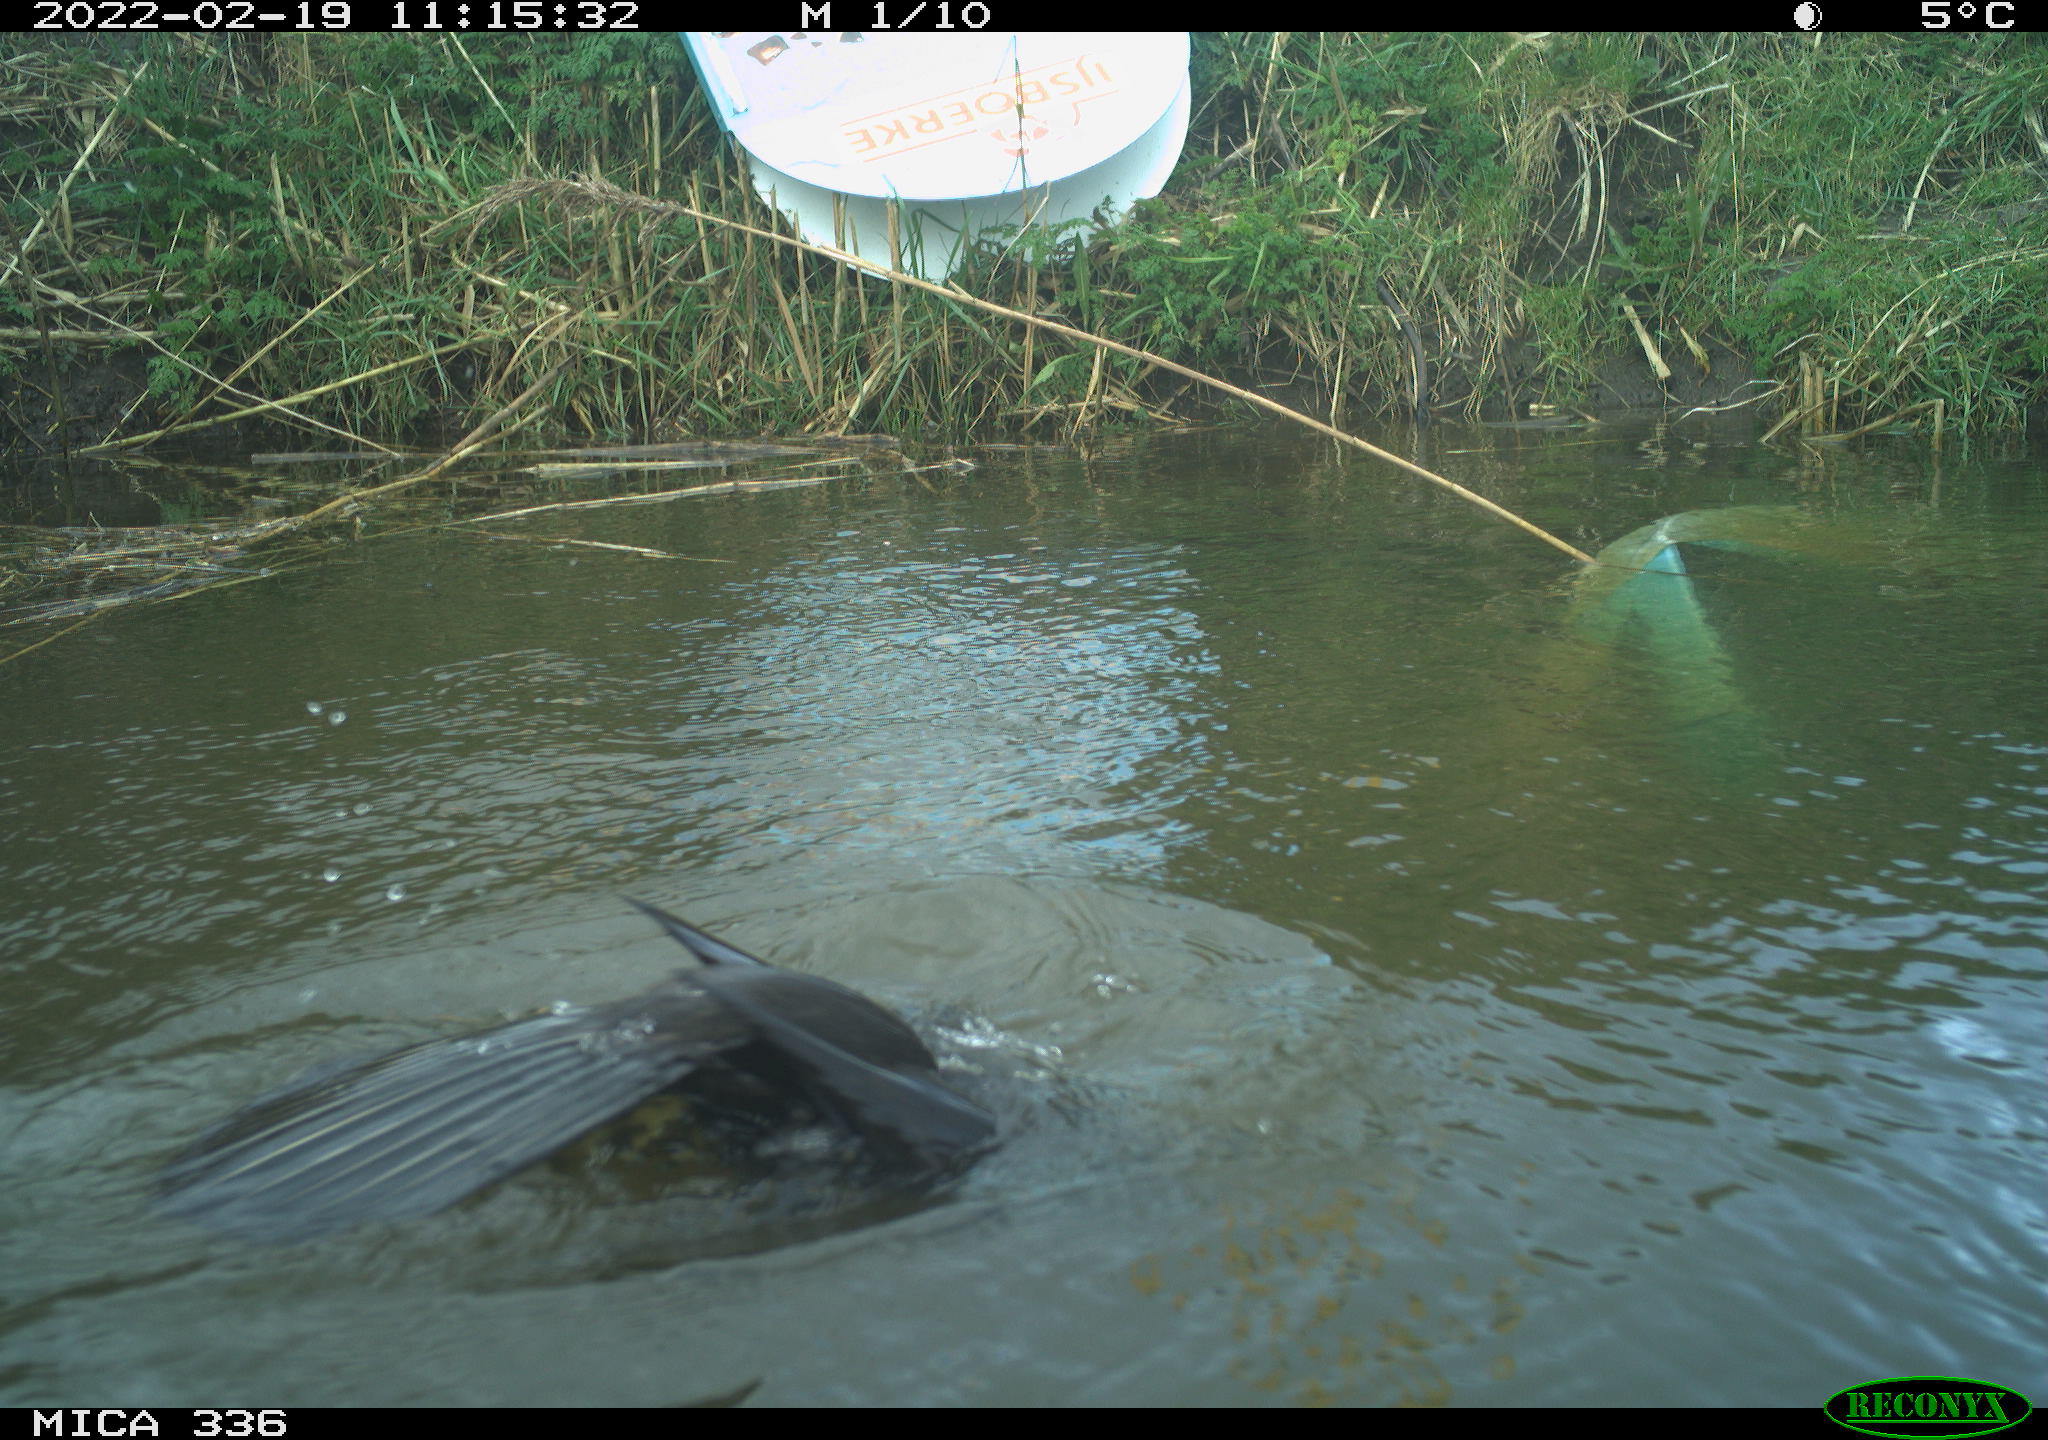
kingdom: Animalia
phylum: Chordata
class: Aves
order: Suliformes
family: Phalacrocoracidae
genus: Phalacrocorax
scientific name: Phalacrocorax carbo
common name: Great cormorant
